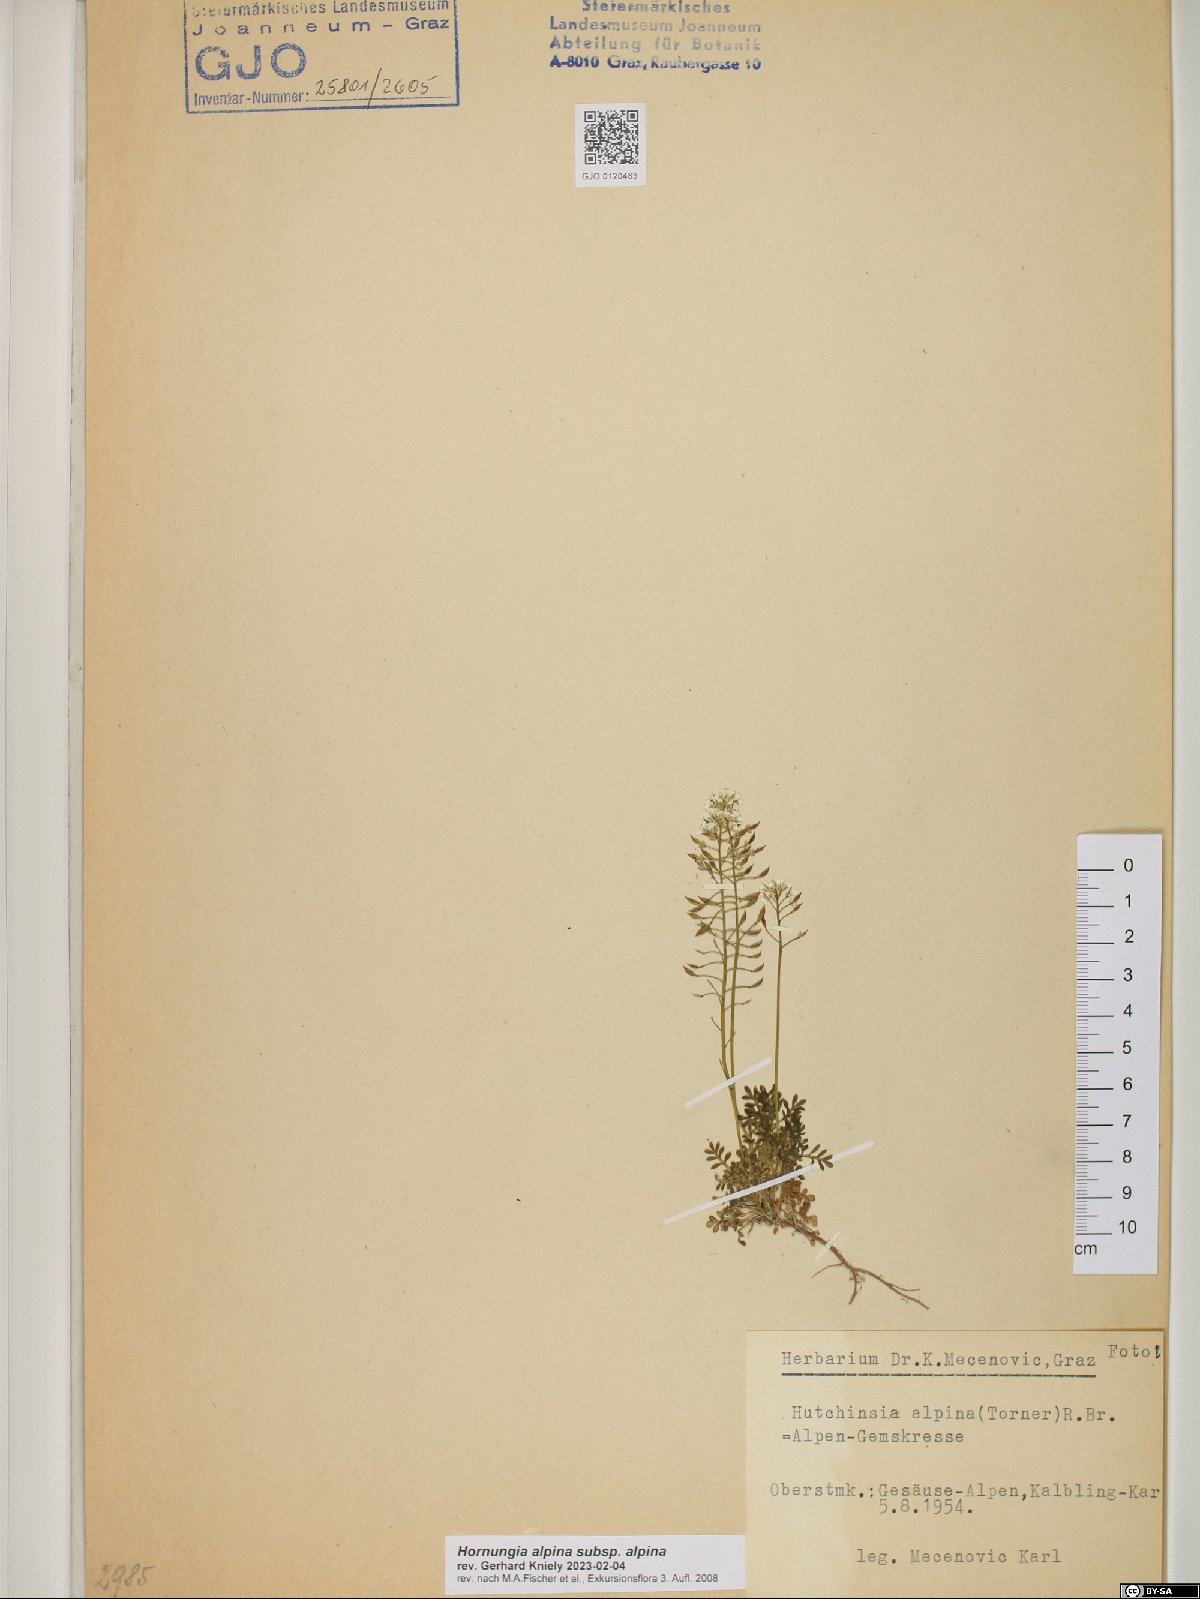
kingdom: Plantae
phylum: Tracheophyta
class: Magnoliopsida
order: Brassicales
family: Brassicaceae
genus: Hornungia
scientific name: Hornungia alpina
